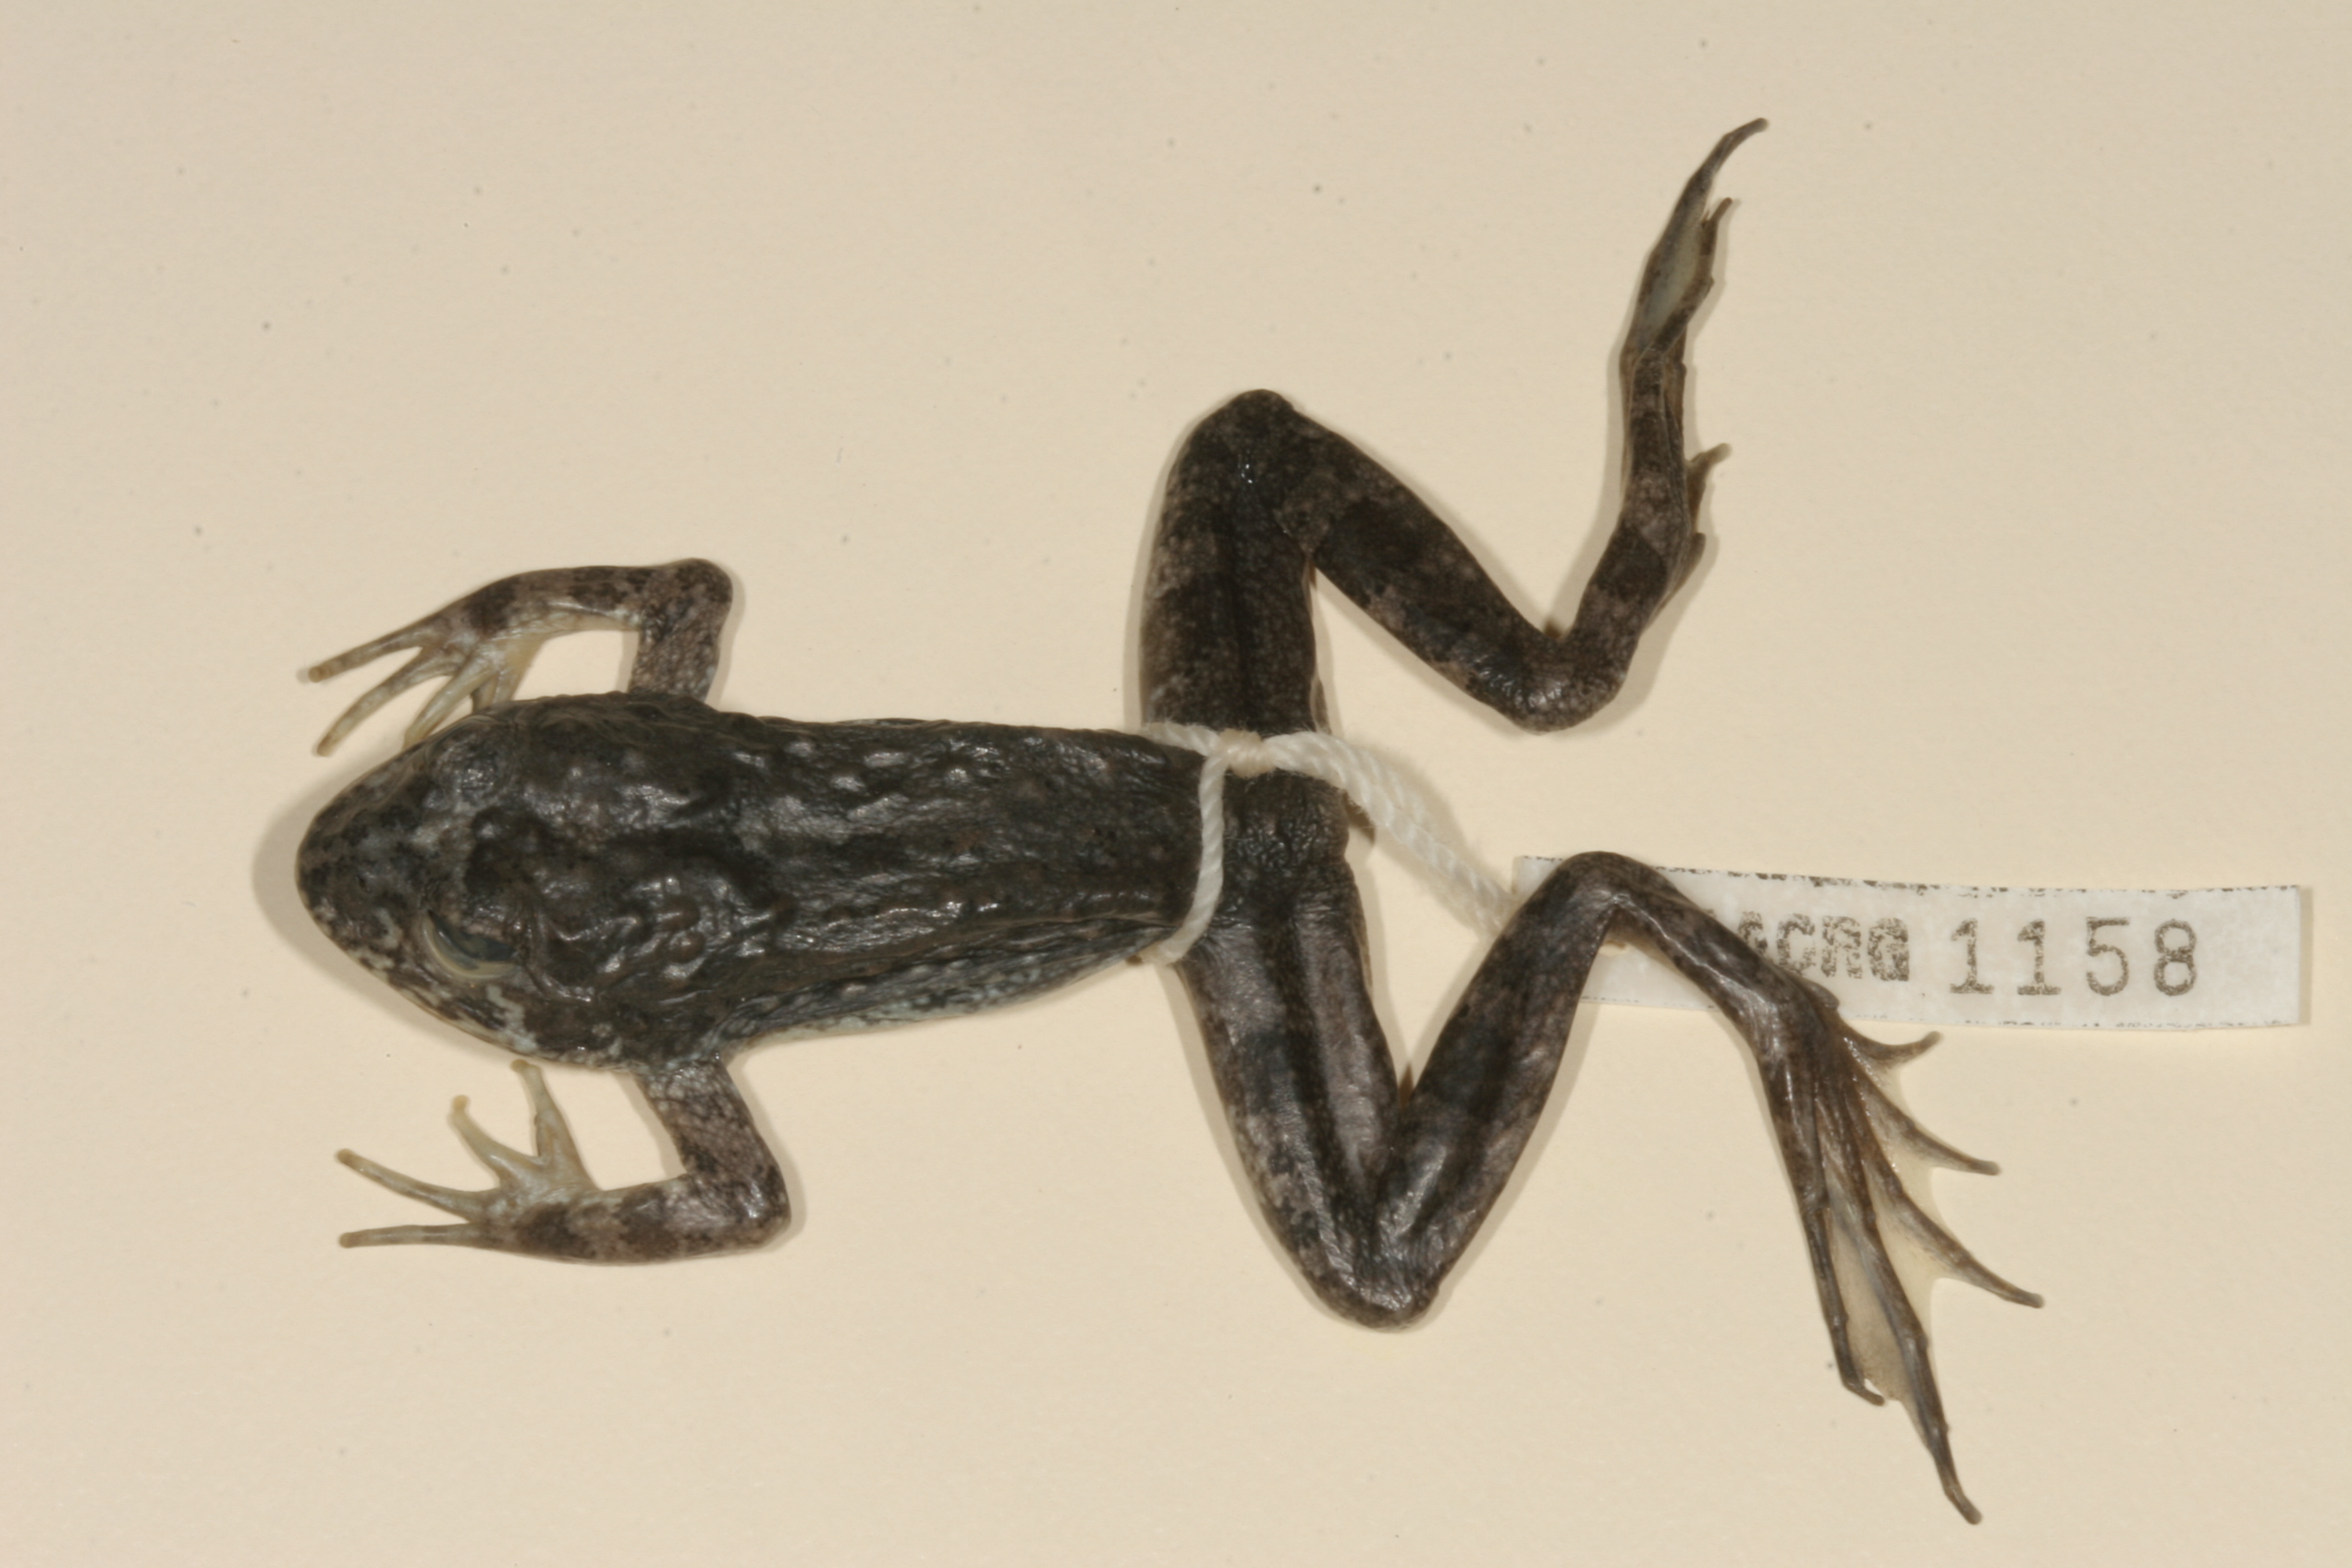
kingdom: Animalia
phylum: Chordata
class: Amphibia
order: Anura
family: Pyxicephalidae
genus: Amietia
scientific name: Amietia vertebralis
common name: Drakensberg stream frog
